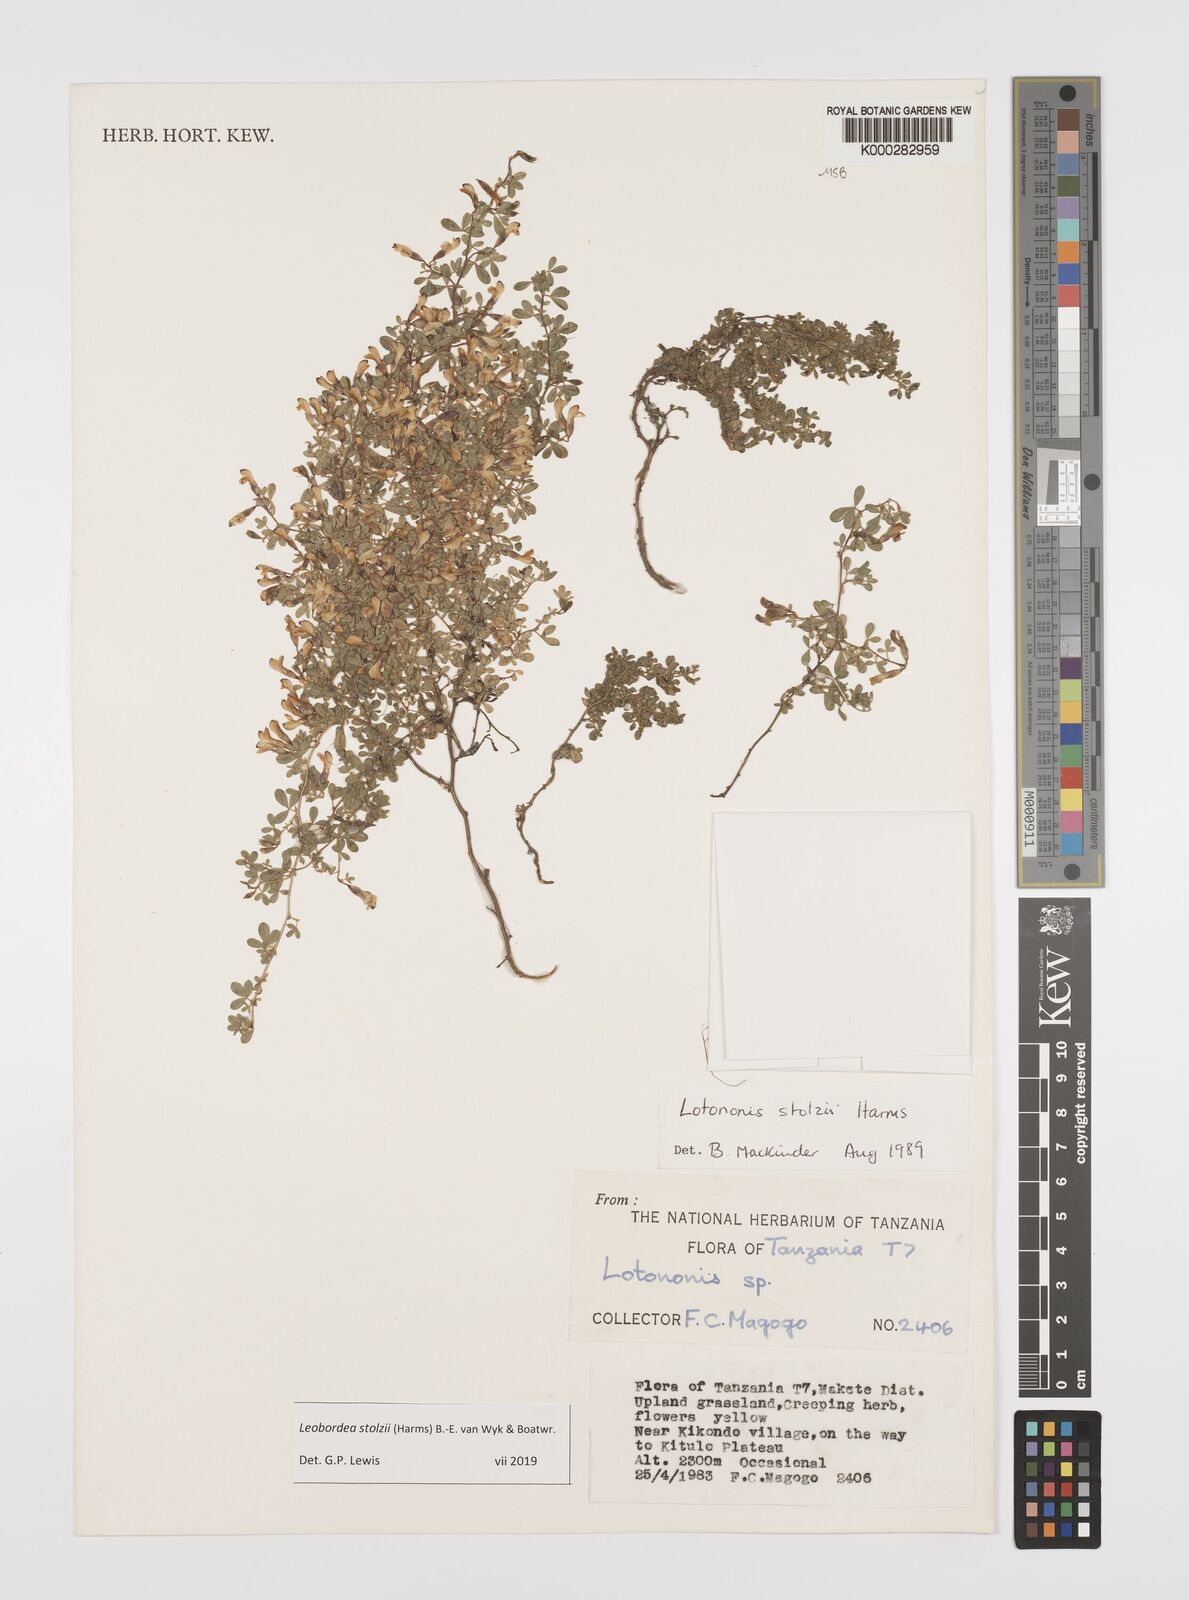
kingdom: Plantae
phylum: Tracheophyta
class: Magnoliopsida
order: Fabales
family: Fabaceae
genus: Leobordea
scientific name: Leobordea stolzii
